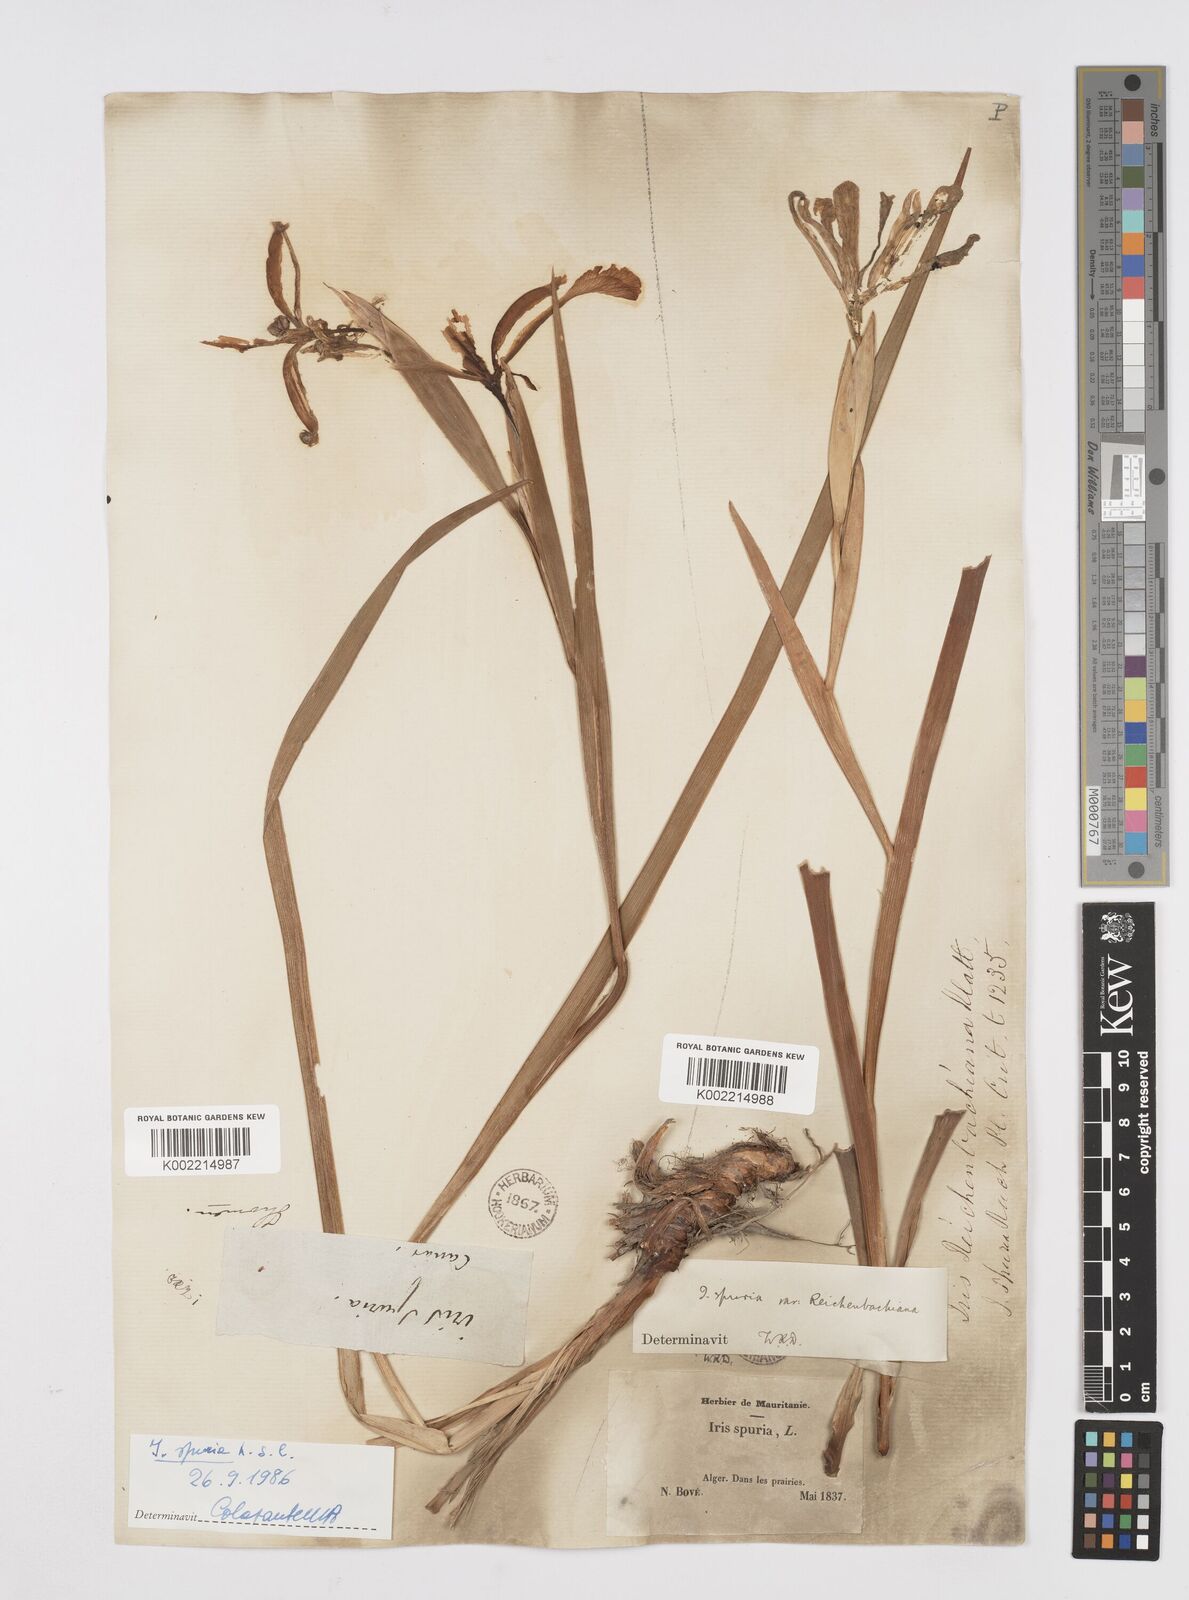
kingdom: Plantae
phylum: Tracheophyta
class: Liliopsida
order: Asparagales
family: Iridaceae
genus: Iris
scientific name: Iris spuria
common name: Blue iris
